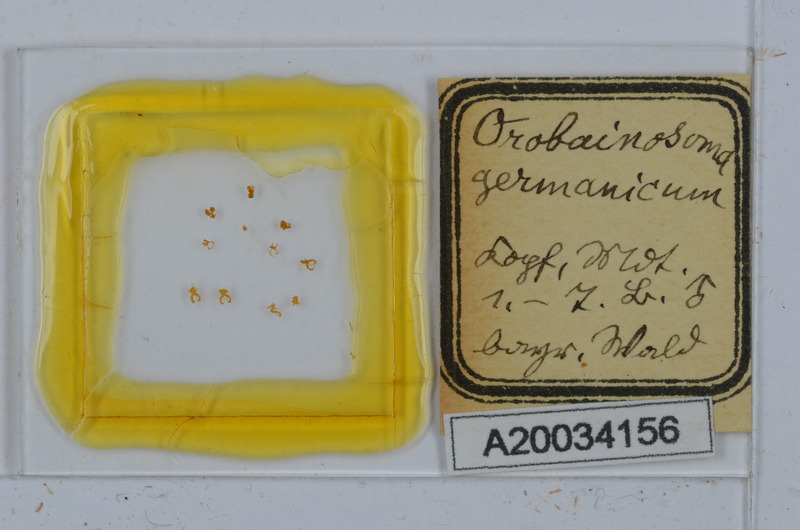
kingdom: Animalia
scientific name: Animalia
